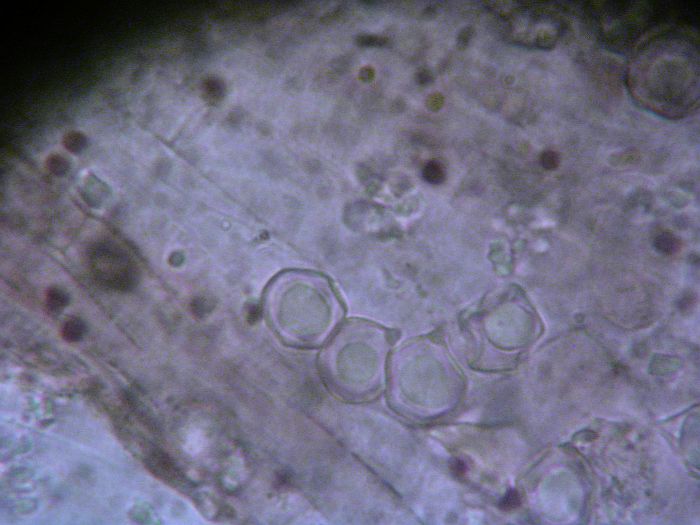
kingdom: Fungi
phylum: Basidiomycota
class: Agaricomycetes
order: Agaricales
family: Entolomataceae
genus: Entoloma
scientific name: Entoloma
